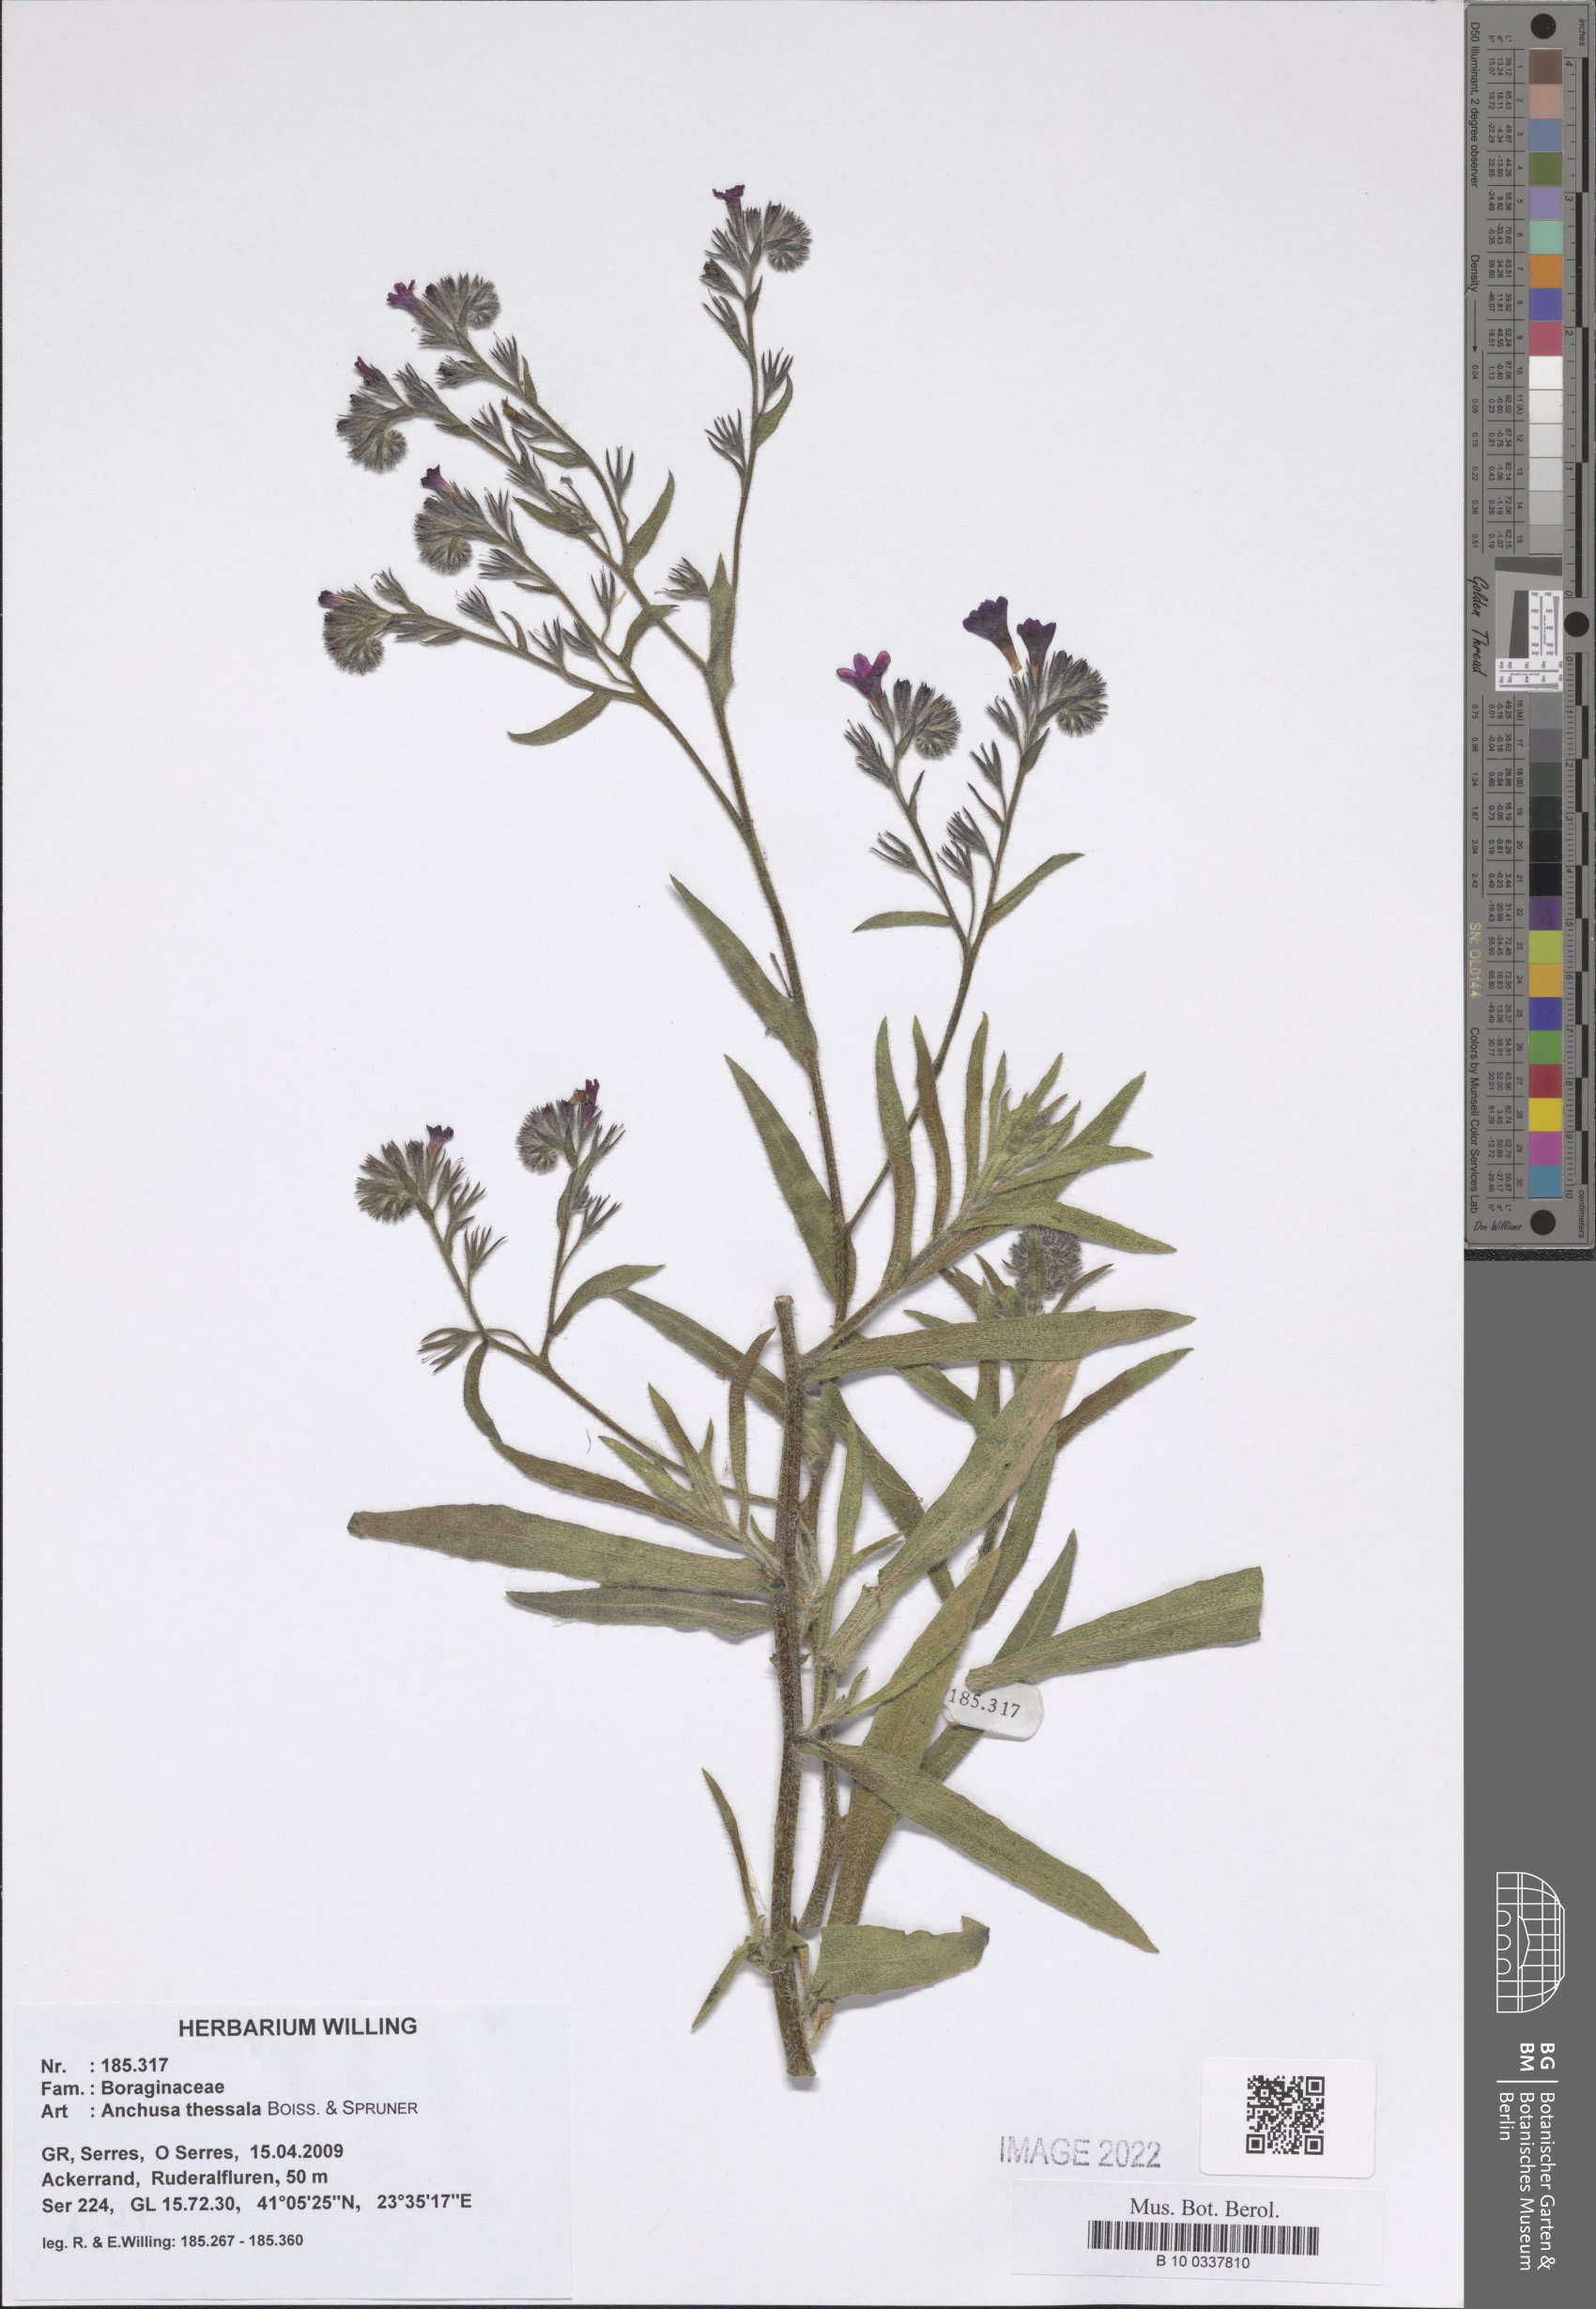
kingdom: Plantae
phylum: Tracheophyta
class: Magnoliopsida
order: Boraginales
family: Boraginaceae
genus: Anchusa
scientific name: Anchusa thessala
